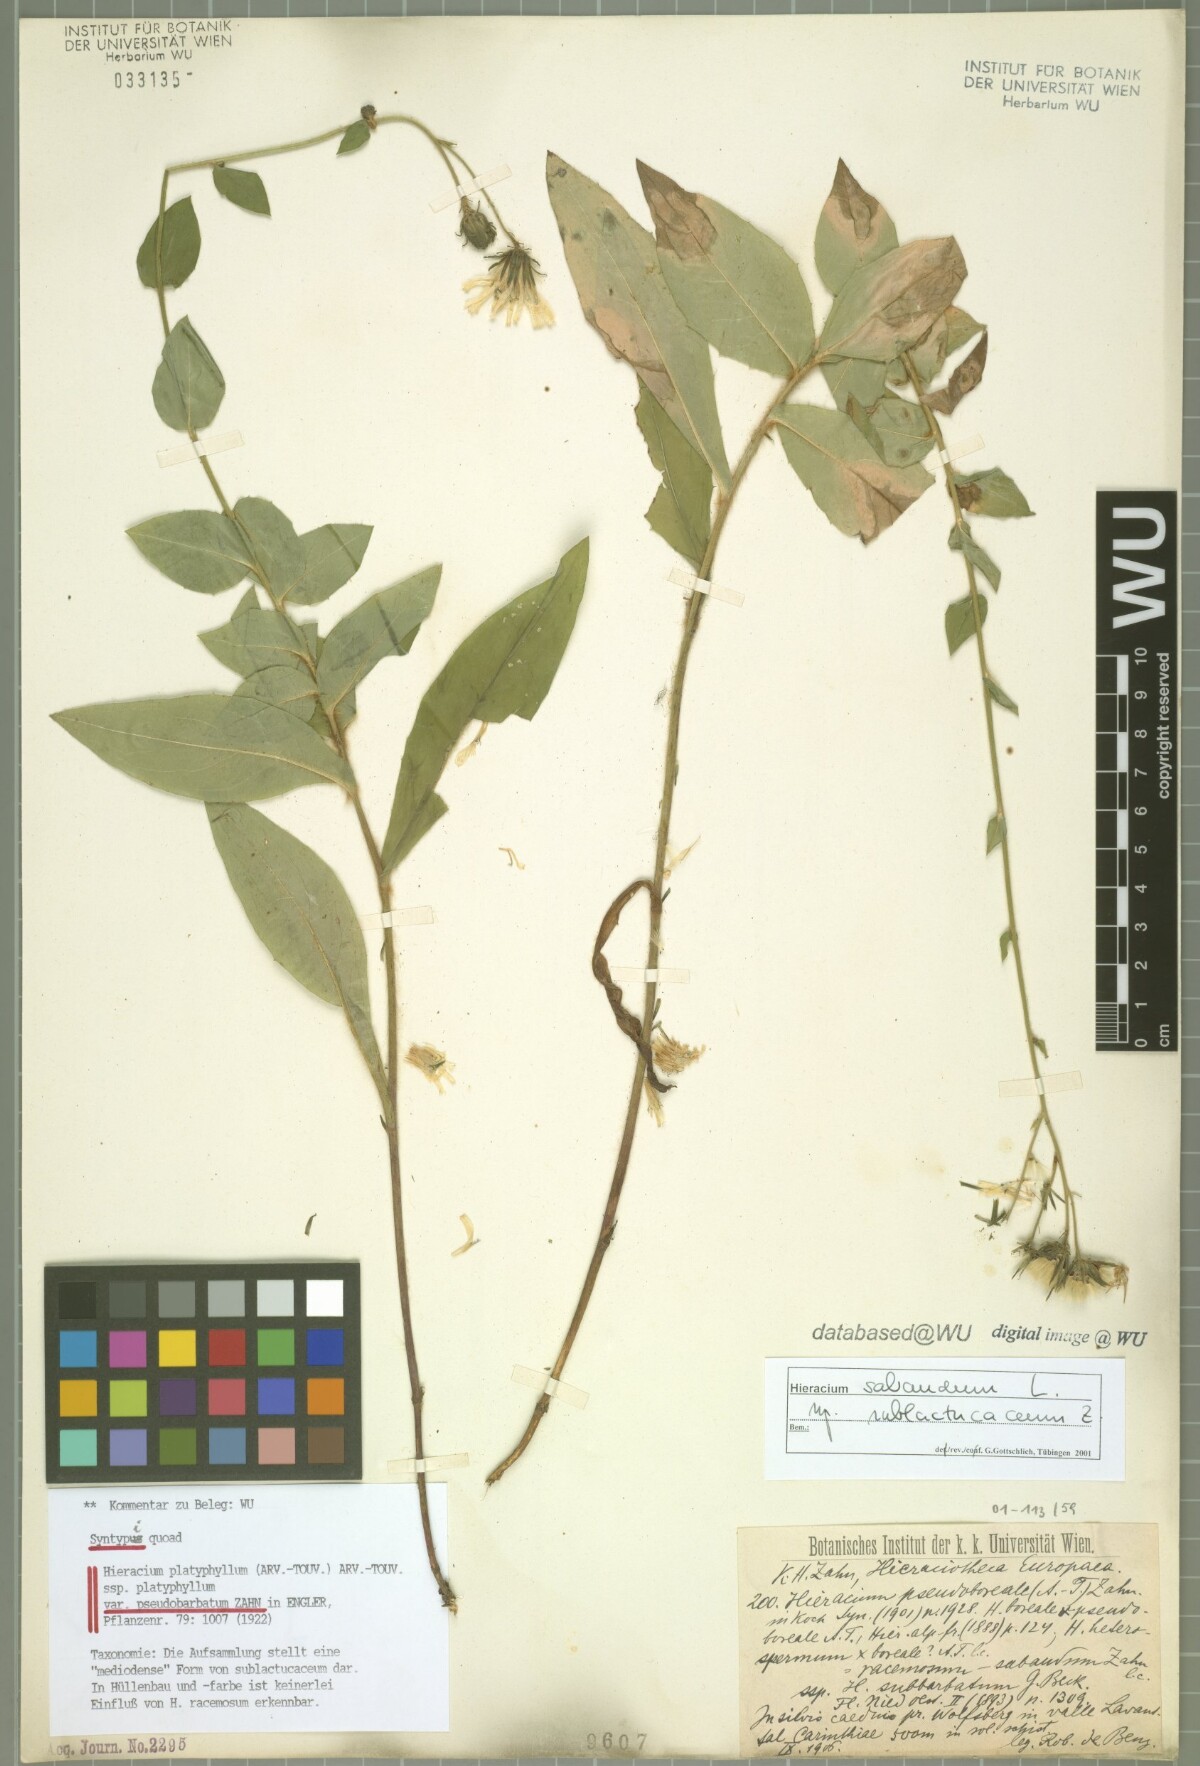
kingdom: Plantae
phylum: Tracheophyta
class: Magnoliopsida
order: Asterales
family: Asteraceae
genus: Hieracium
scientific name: Hieracium
